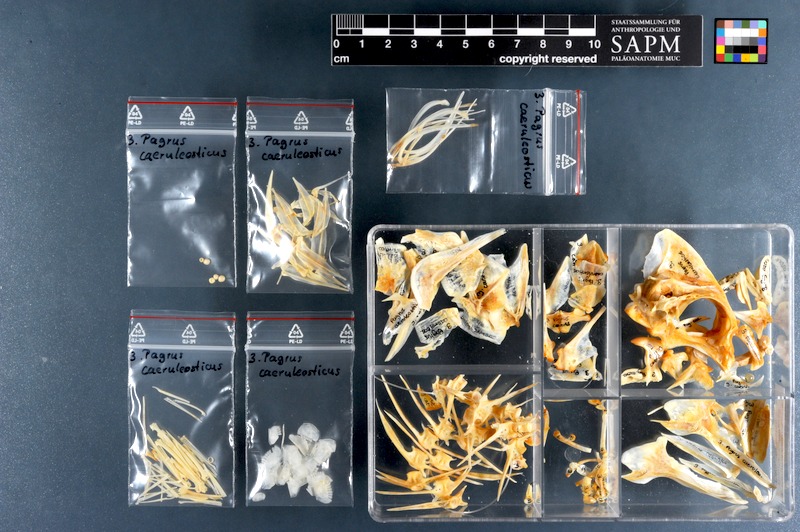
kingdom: Animalia
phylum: Chordata
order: Perciformes
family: Sparidae
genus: Pagrus
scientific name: Pagrus caeruleostictus
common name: Bluespotted seabream
